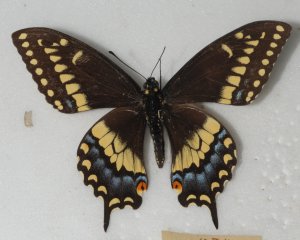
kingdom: Animalia
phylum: Arthropoda
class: Insecta
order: Lepidoptera
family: Papilionidae
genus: Papilio
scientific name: Papilio polyxenes
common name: Black Swallowtail
